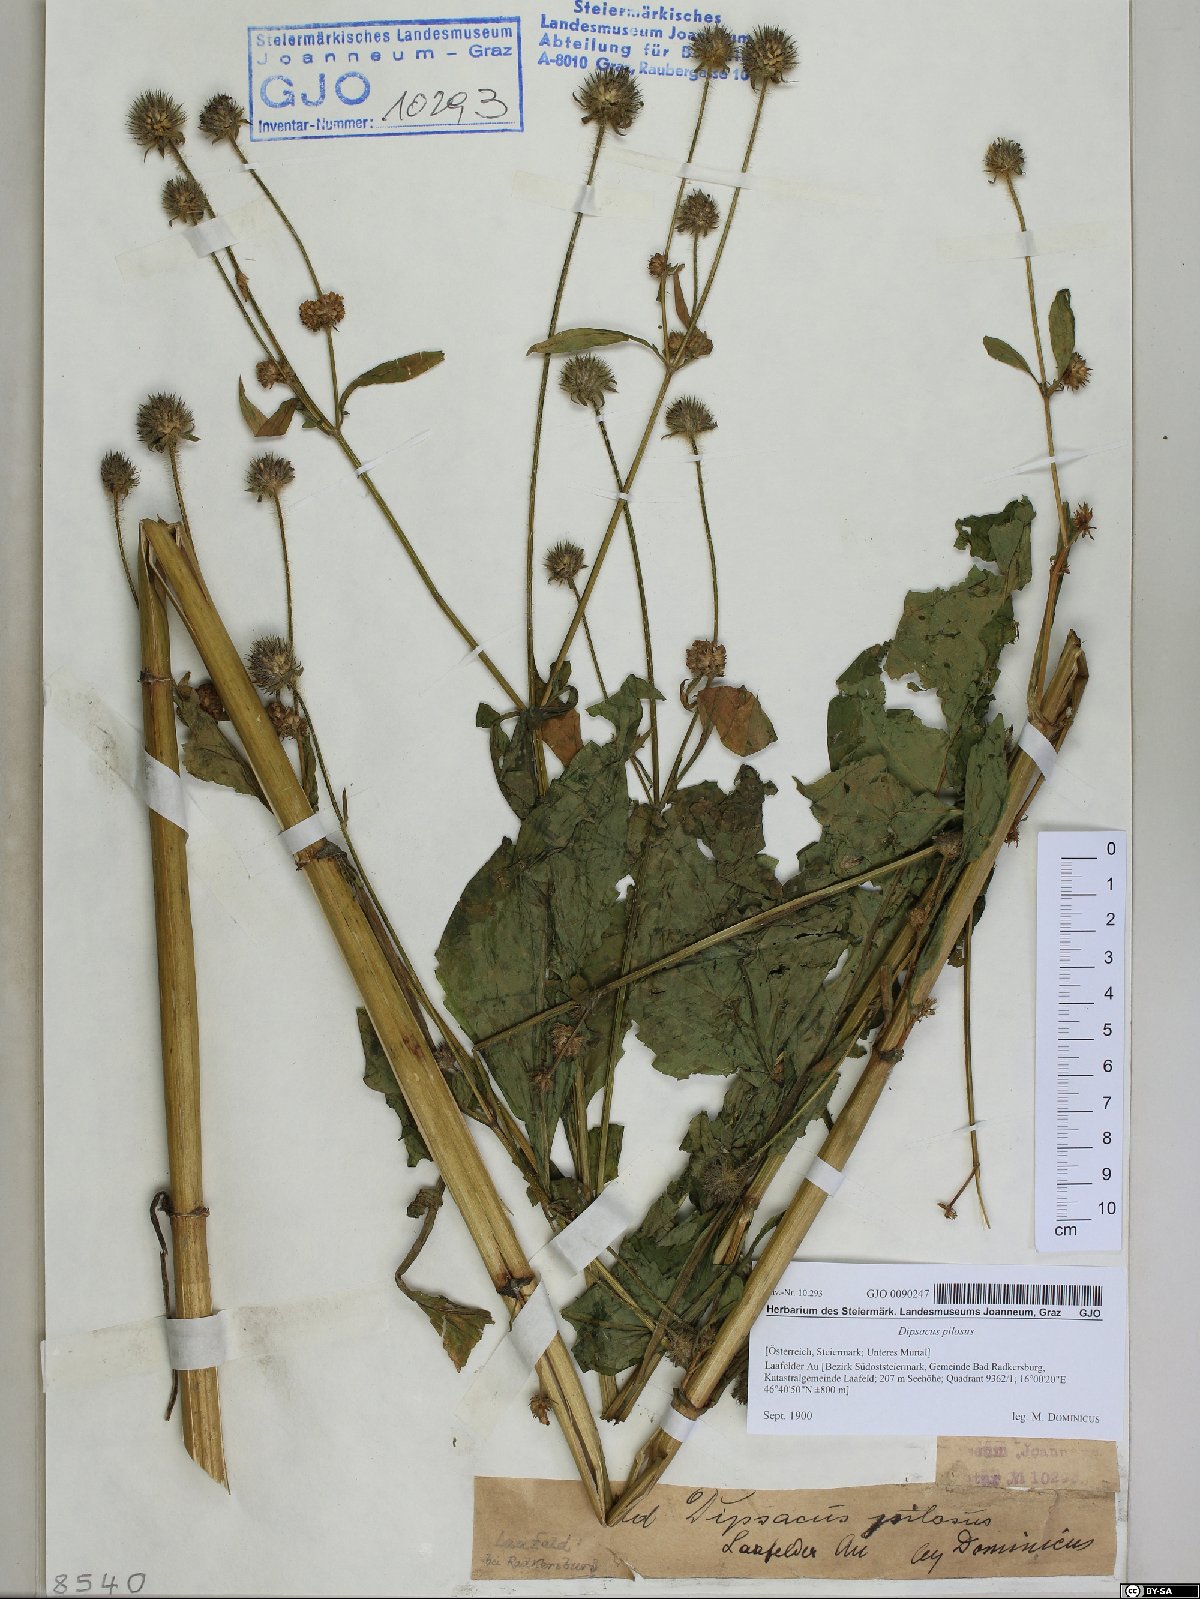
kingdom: Plantae
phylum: Tracheophyta
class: Magnoliopsida
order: Dipsacales
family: Caprifoliaceae
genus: Dipsacus
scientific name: Dipsacus pilosus
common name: Small teasel
